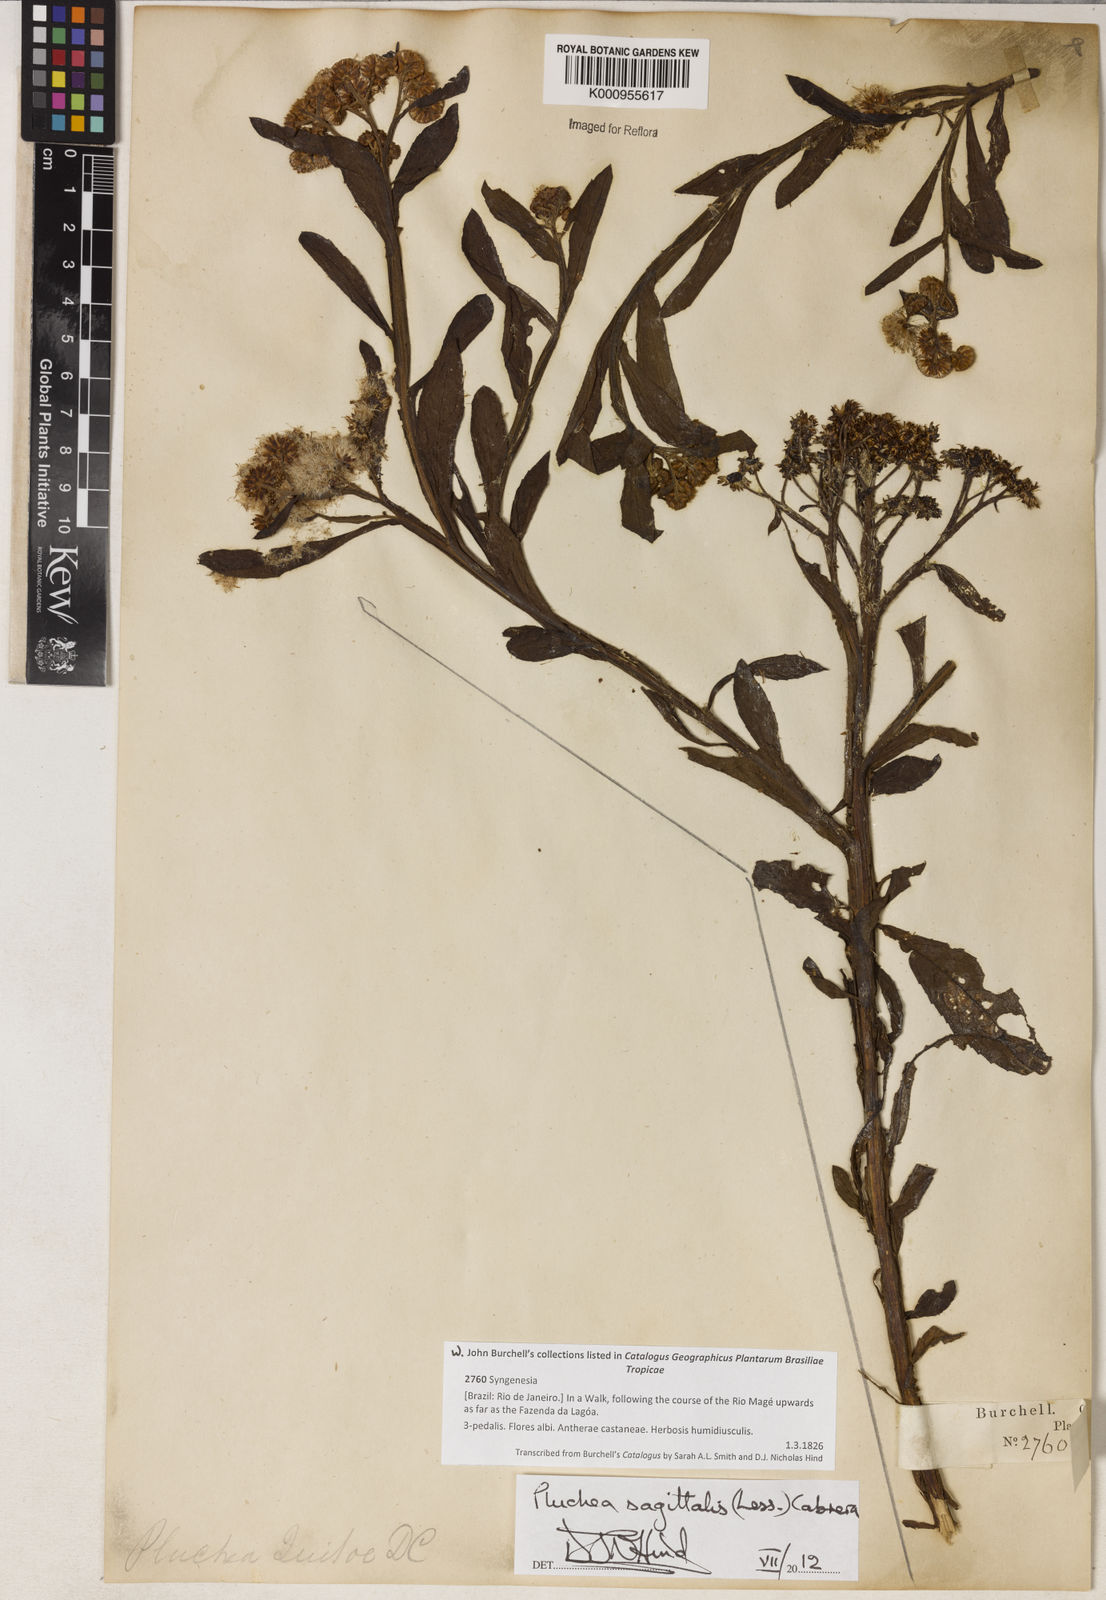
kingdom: Plantae
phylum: Tracheophyta
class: Magnoliopsida
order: Asterales
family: Asteraceae
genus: Pluchea
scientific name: Pluchea sagittalis
